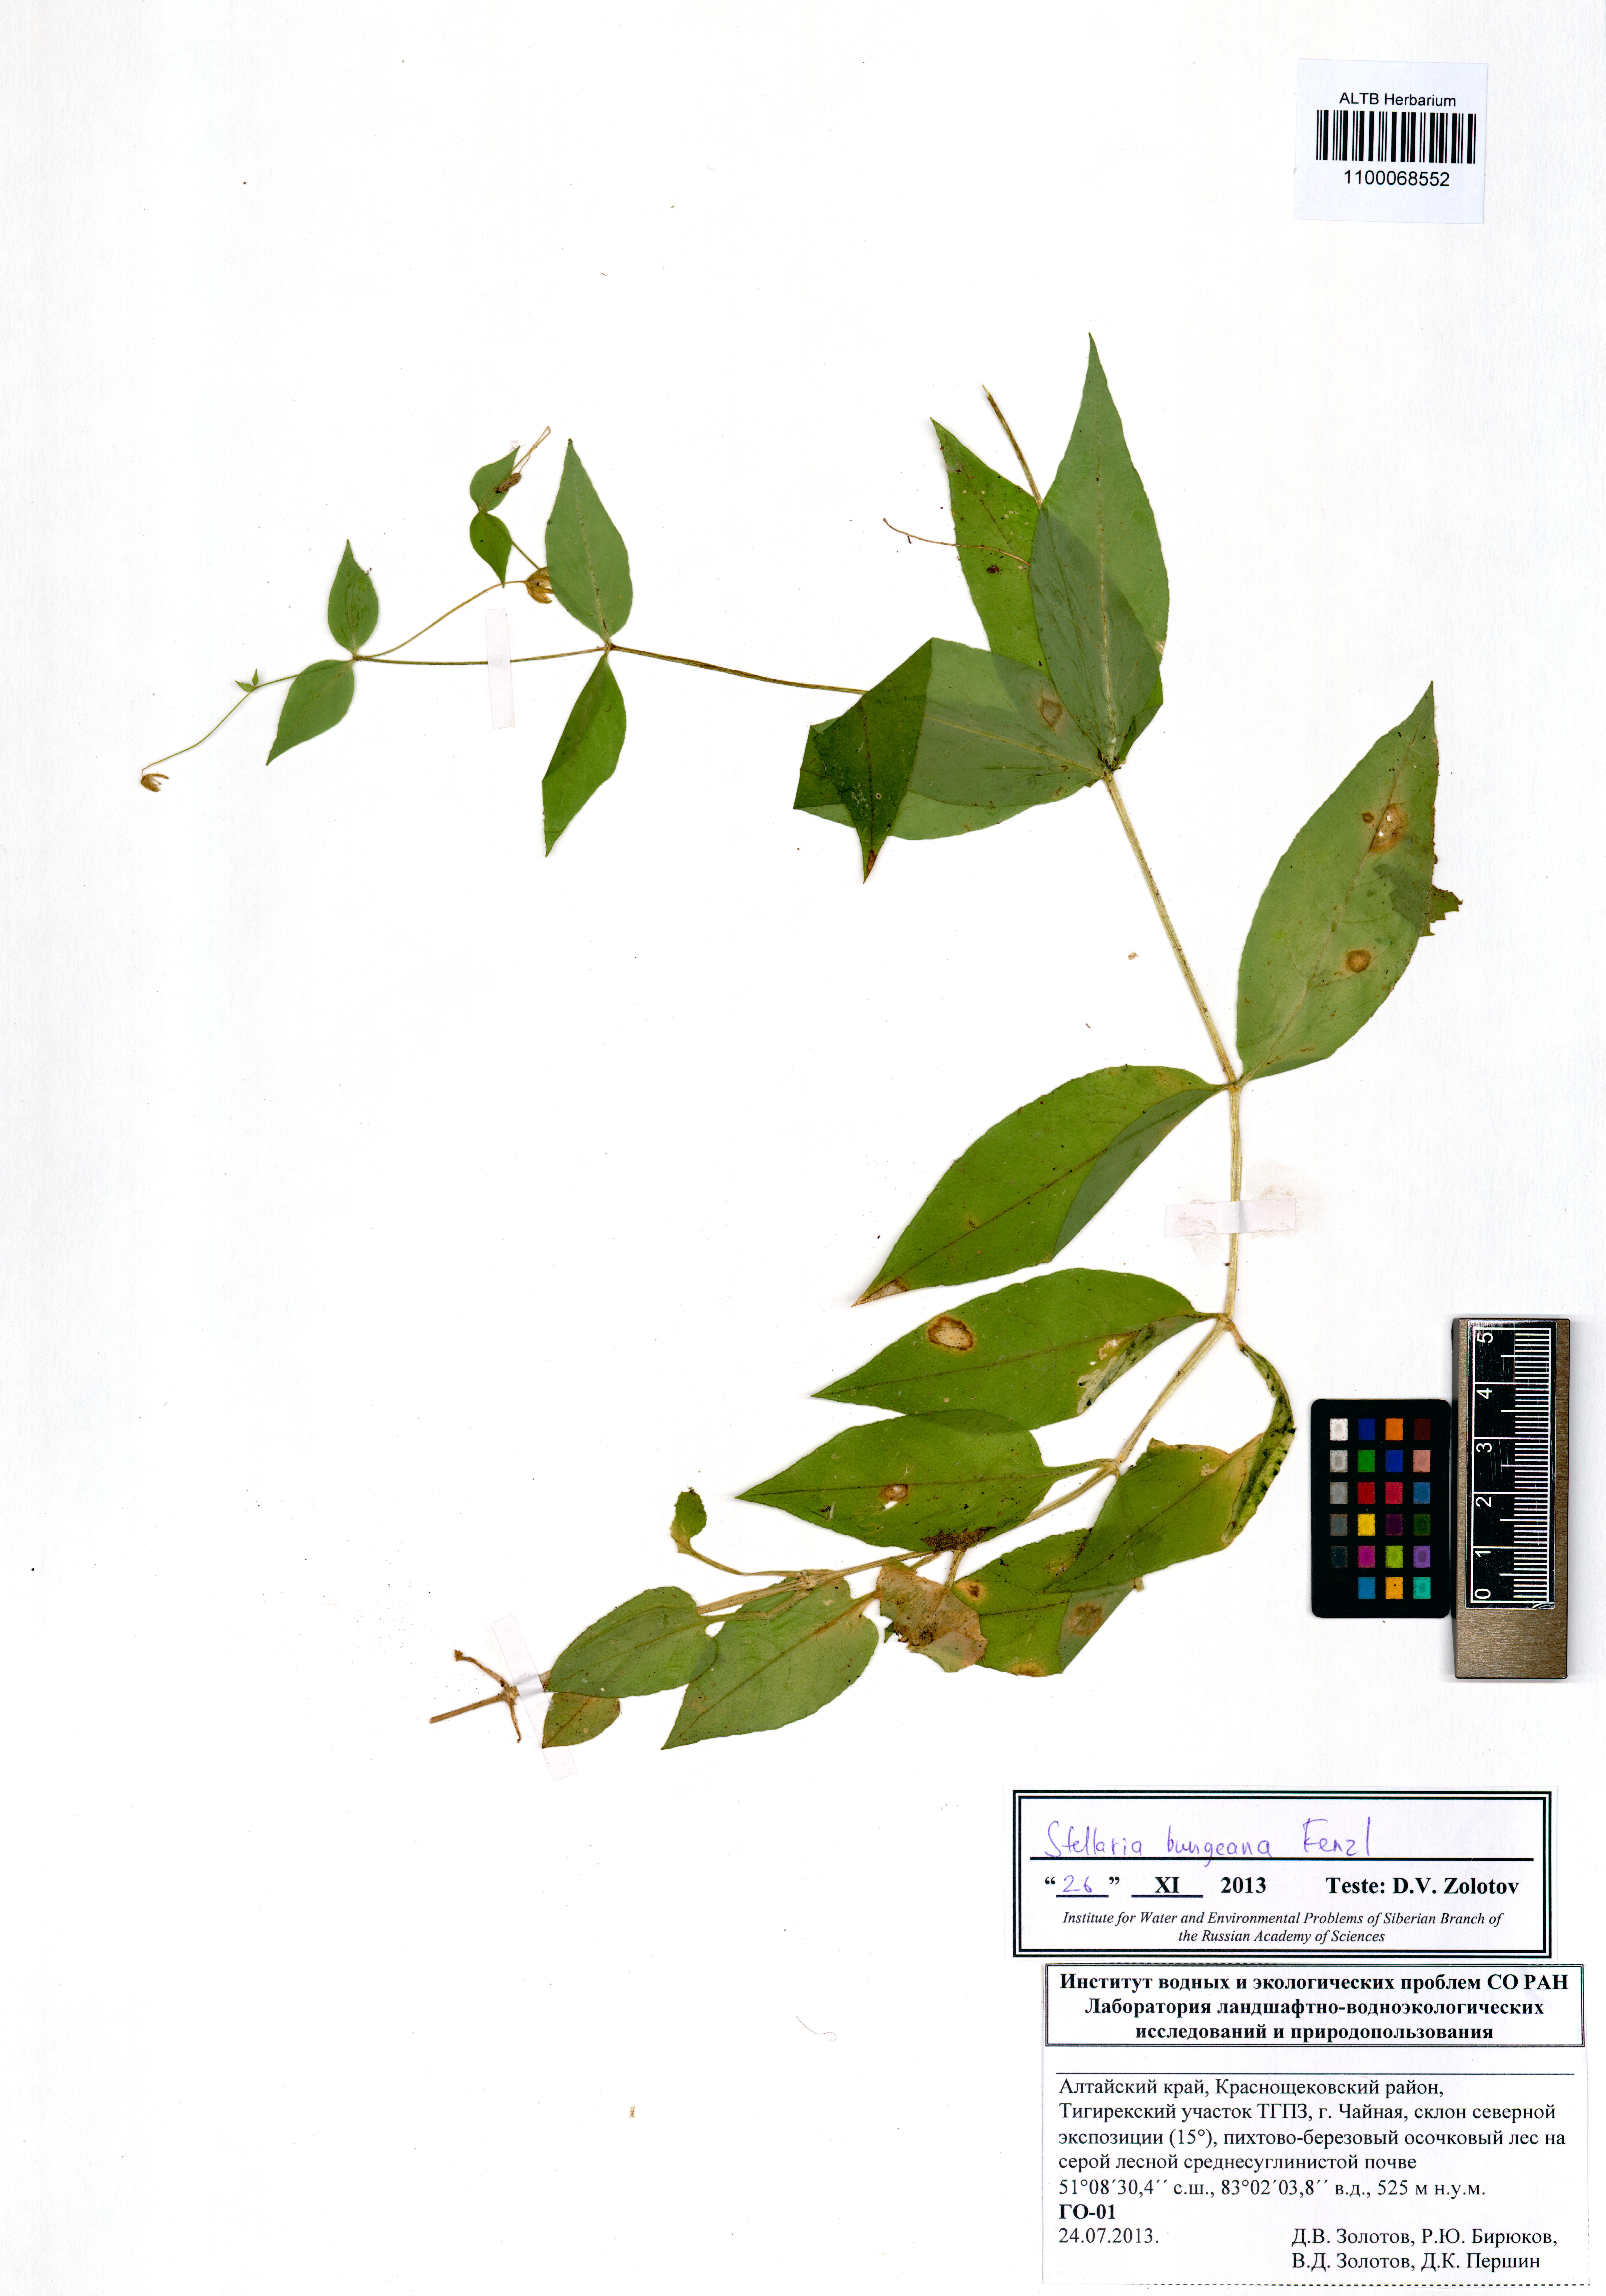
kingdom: Plantae
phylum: Tracheophyta
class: Magnoliopsida
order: Caryophyllales
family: Caryophyllaceae
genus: Stellaria
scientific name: Stellaria bungeana
